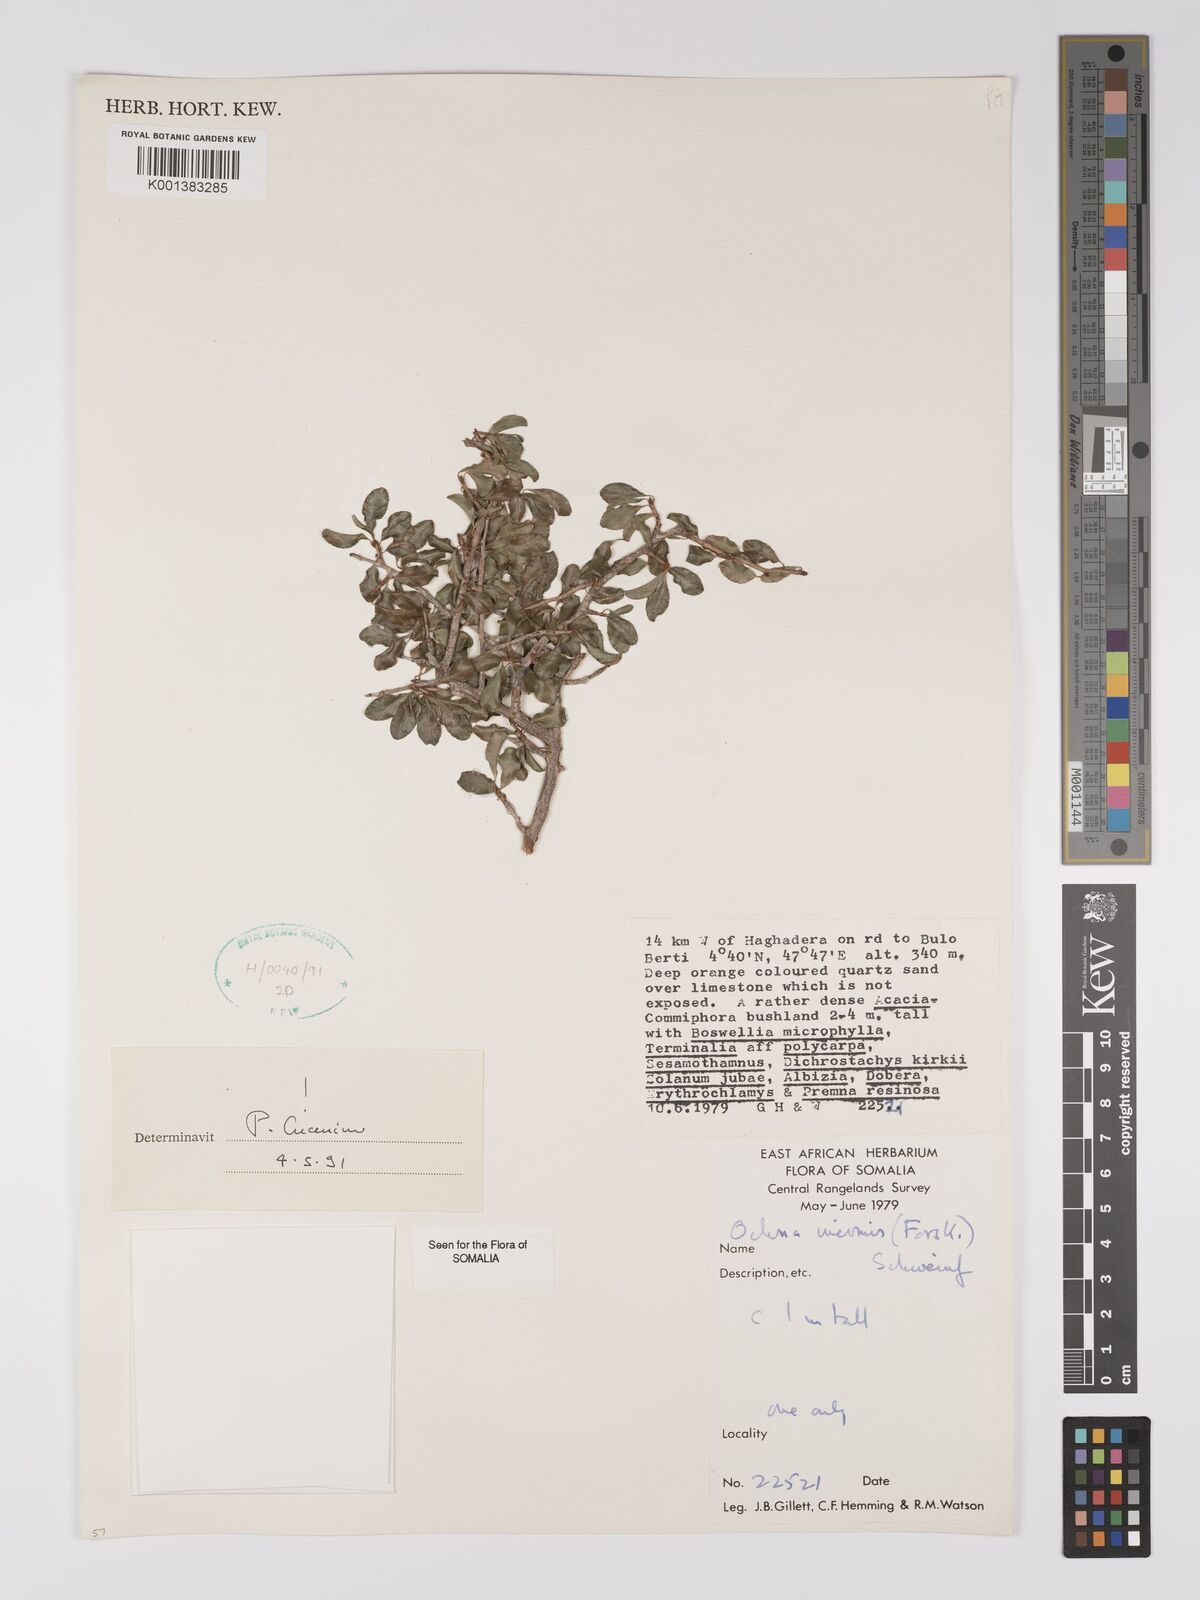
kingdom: Plantae
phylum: Tracheophyta
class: Magnoliopsida
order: Malpighiales
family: Ochnaceae
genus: Ochna
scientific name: Ochna inermis
